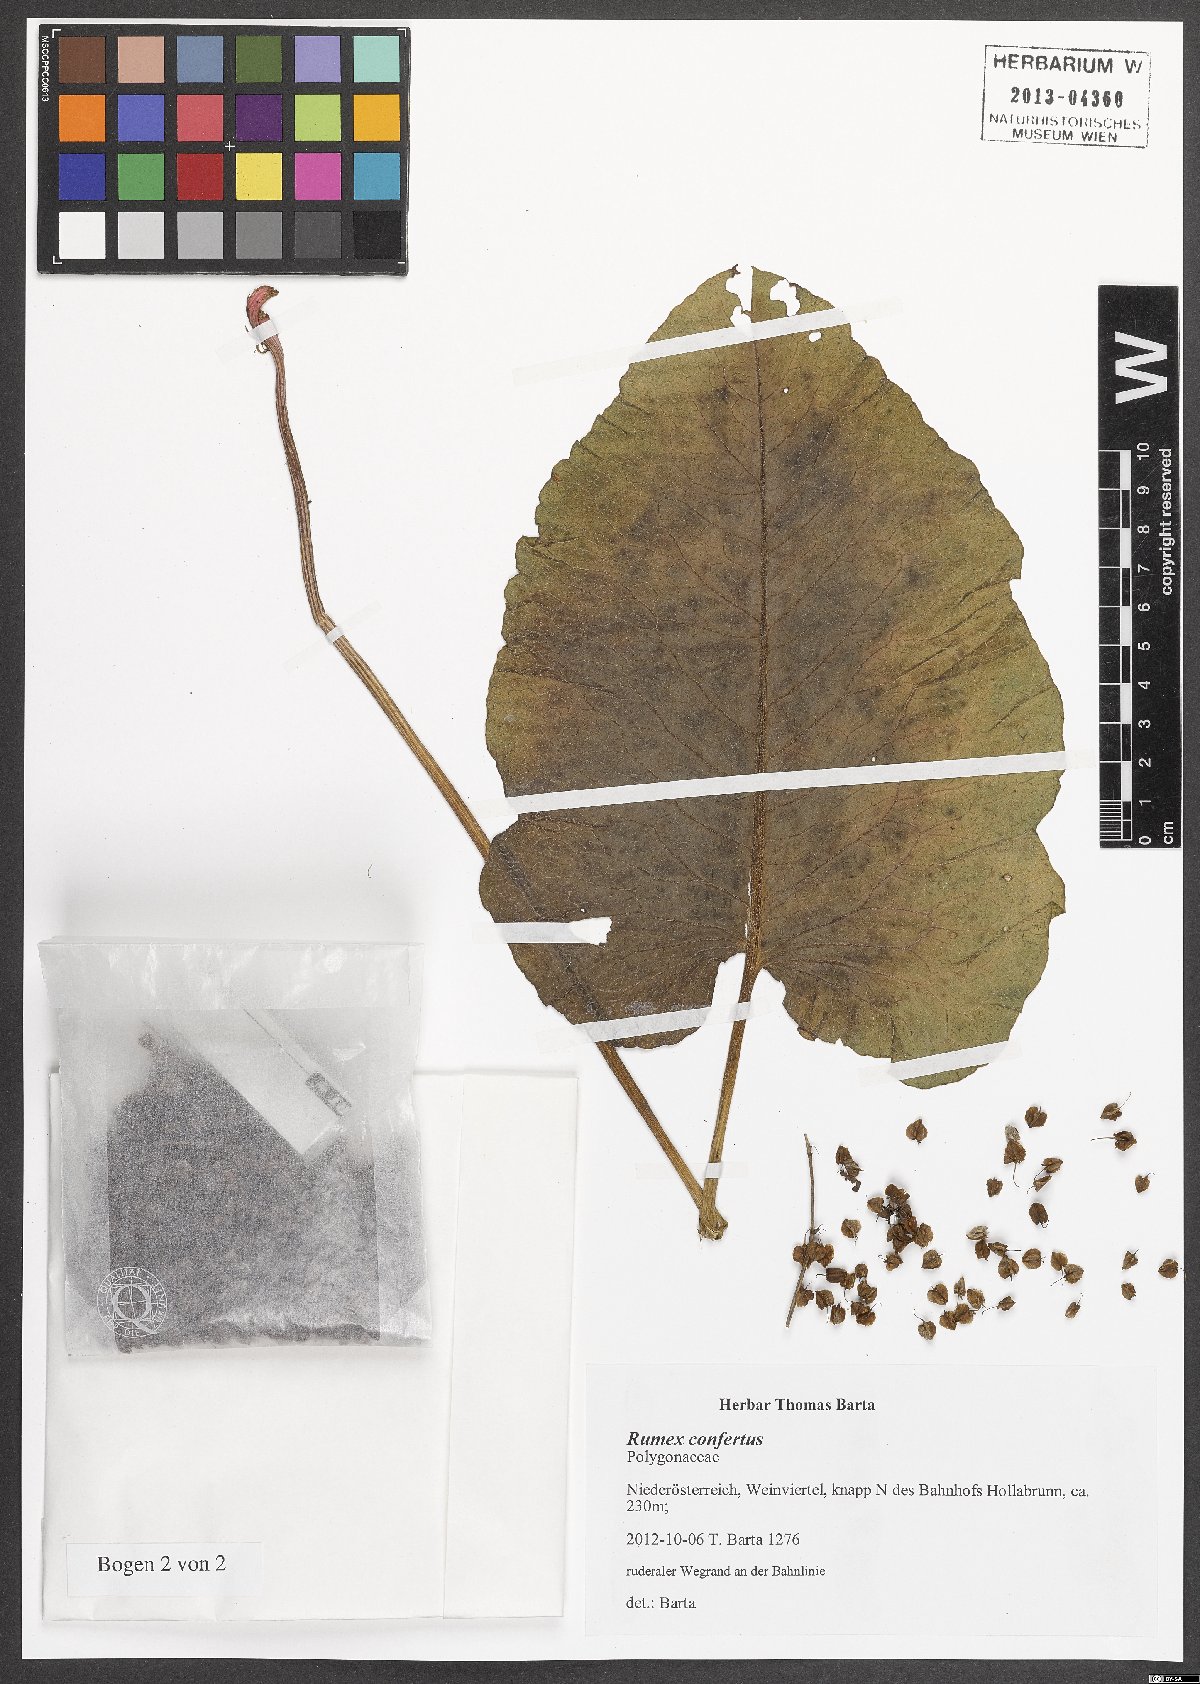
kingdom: Plantae
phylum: Tracheophyta
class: Magnoliopsida
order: Caryophyllales
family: Polygonaceae
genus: Rumex
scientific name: Rumex confertus
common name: Russian dock
